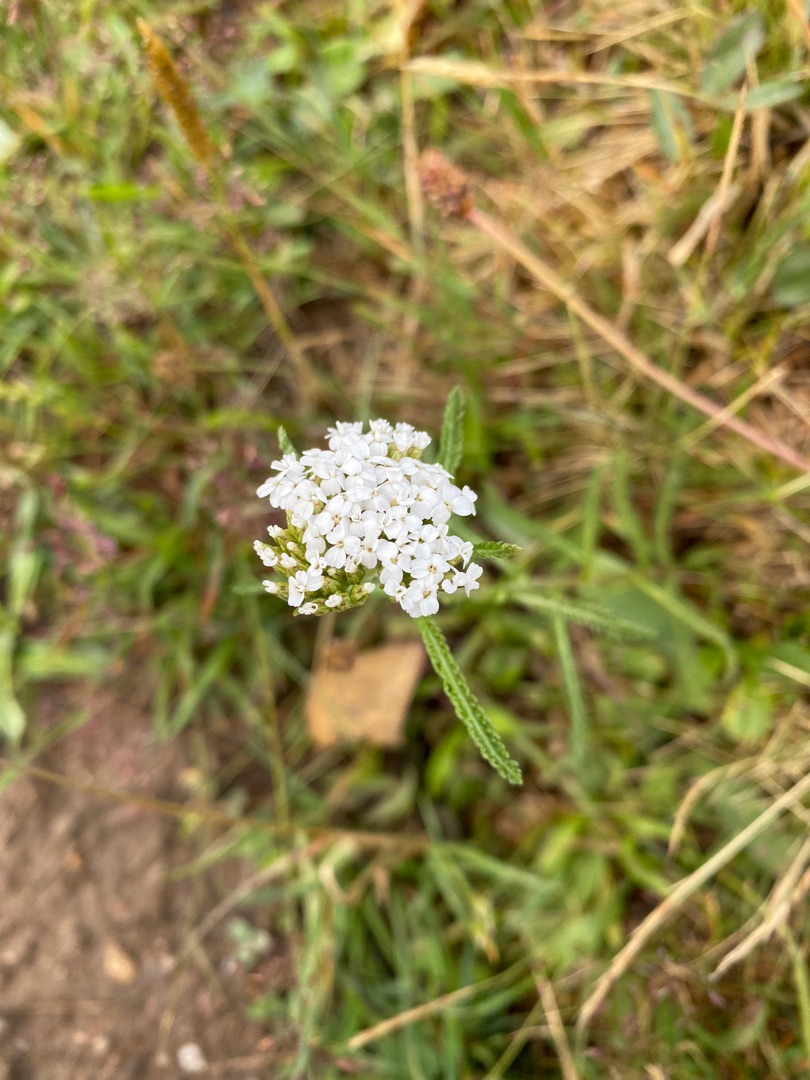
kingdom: Plantae
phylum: Tracheophyta
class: Magnoliopsida
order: Asterales
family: Asteraceae
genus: Achillea
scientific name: Achillea millefolium
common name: Almindelig røllike
